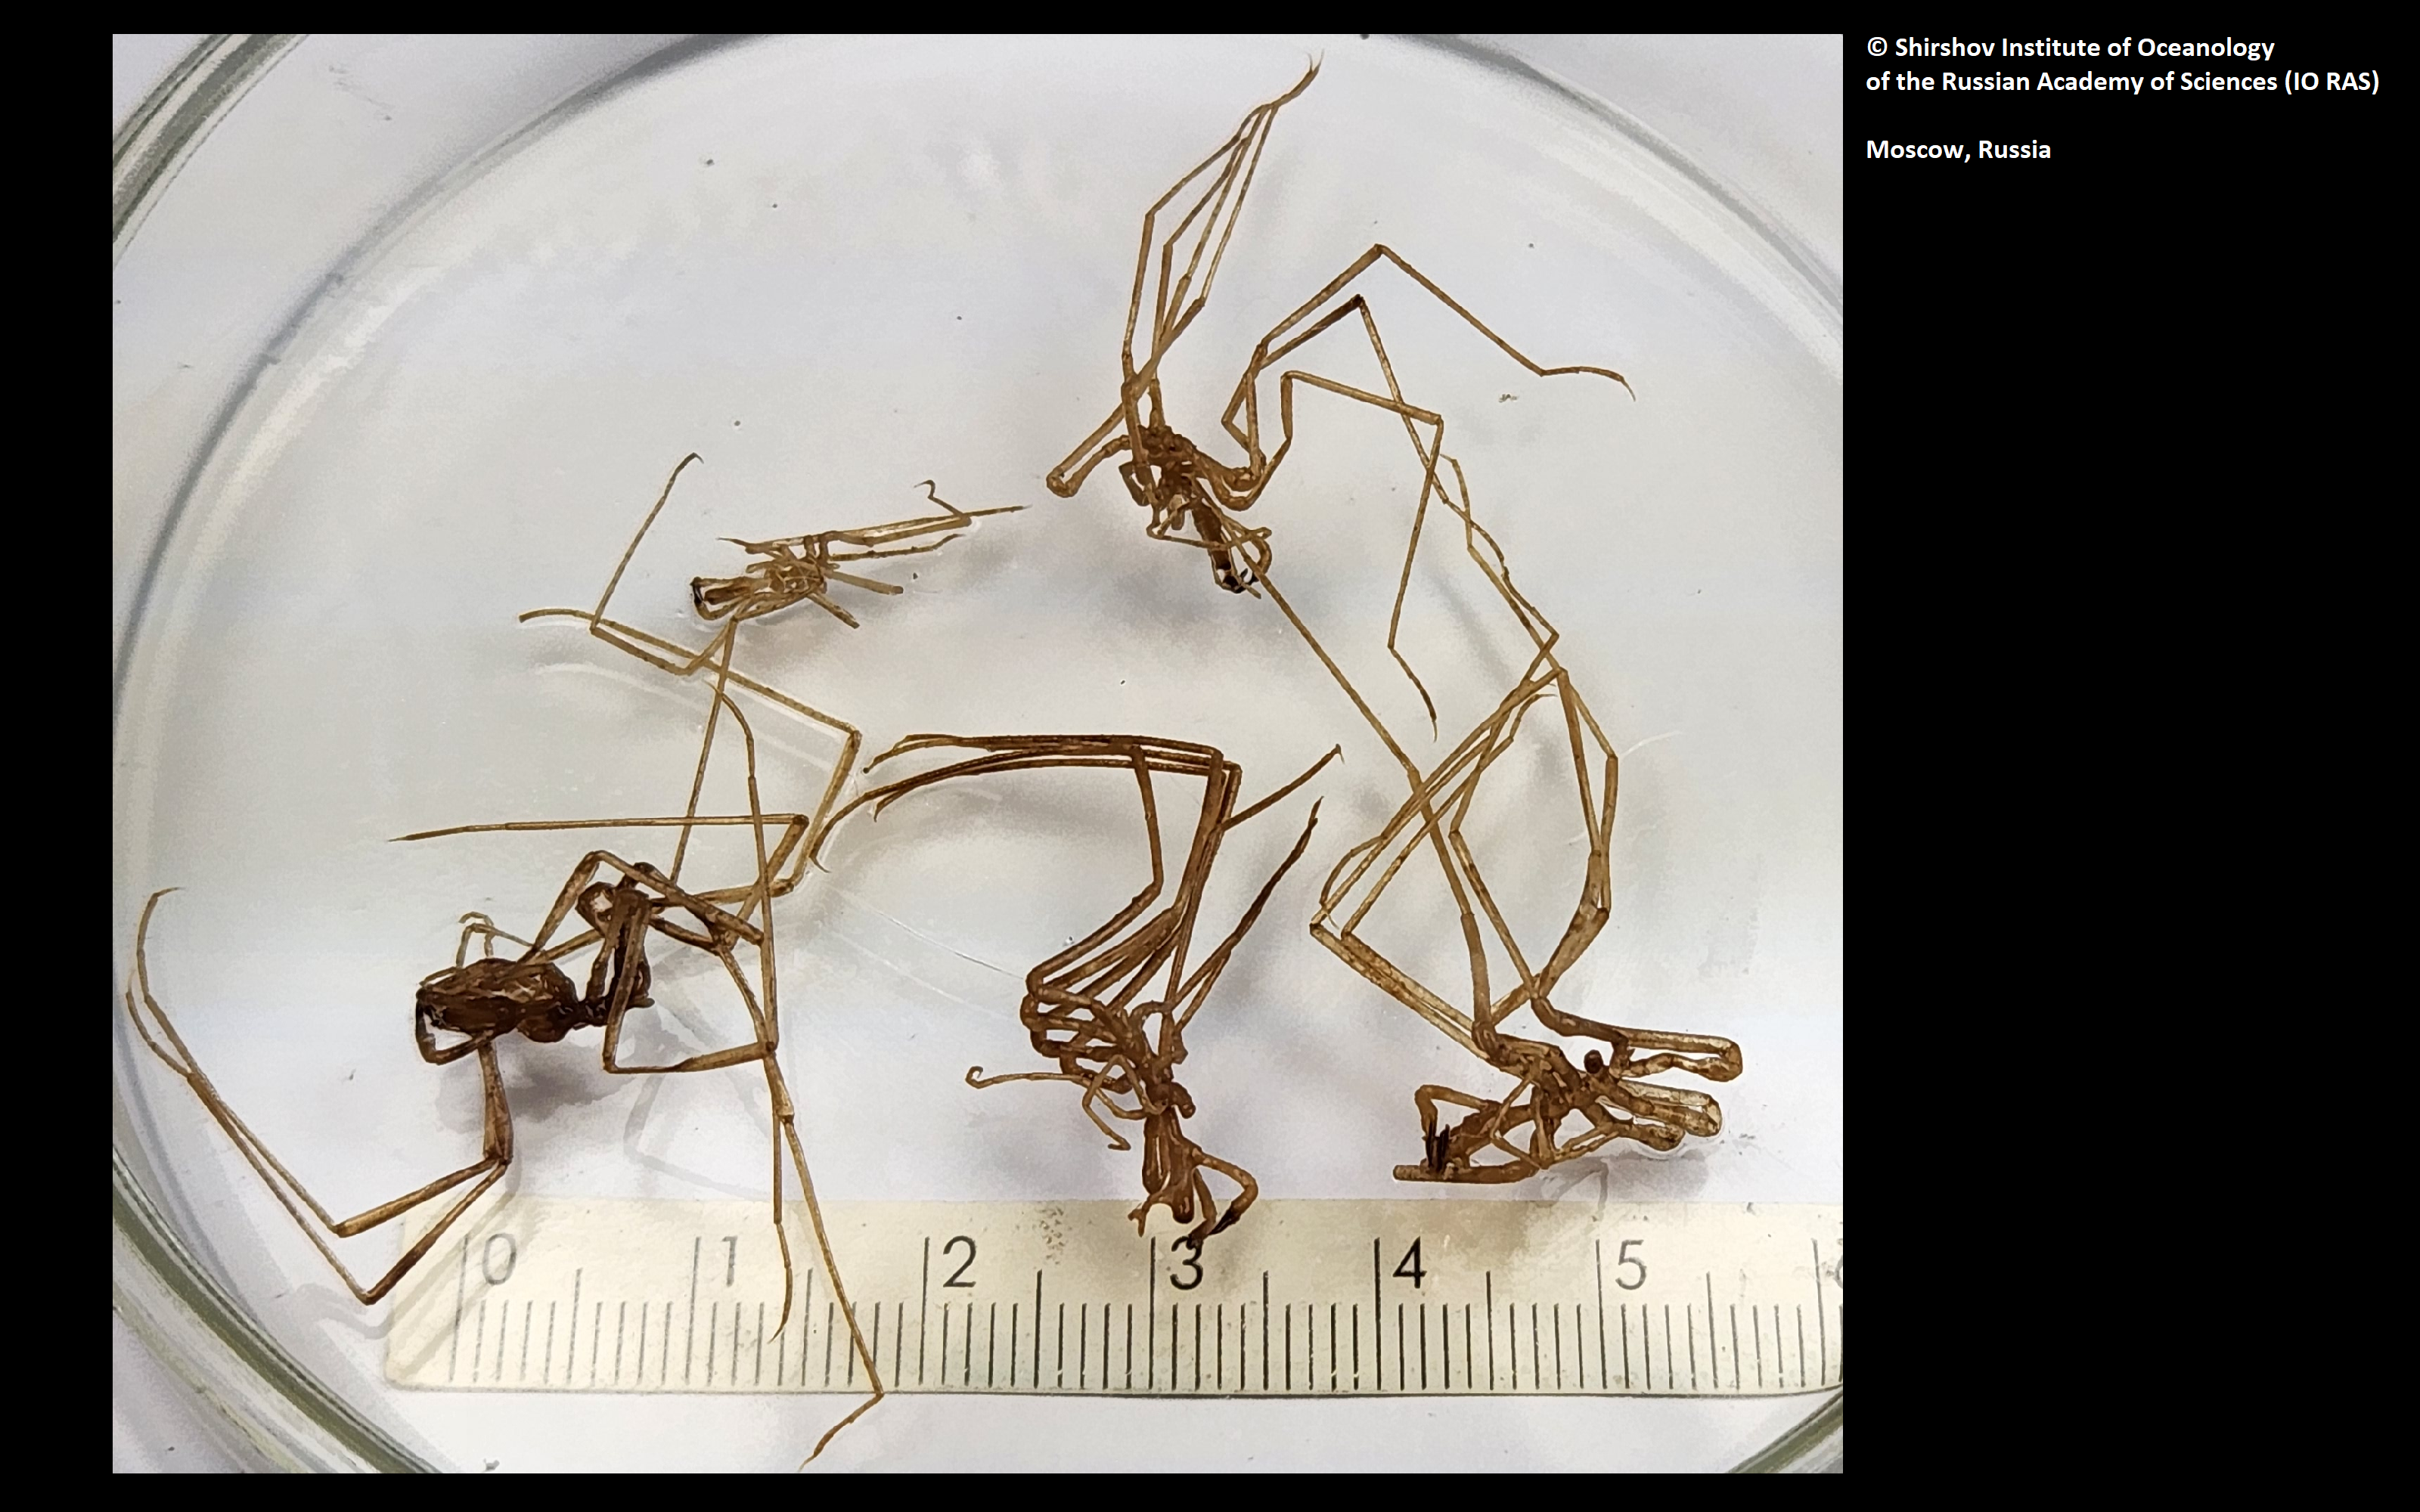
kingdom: Animalia
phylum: Arthropoda
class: Pycnogonida
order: Pantopoda
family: Nymphonidae
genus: Nymphon
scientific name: Nymphon nipponense
